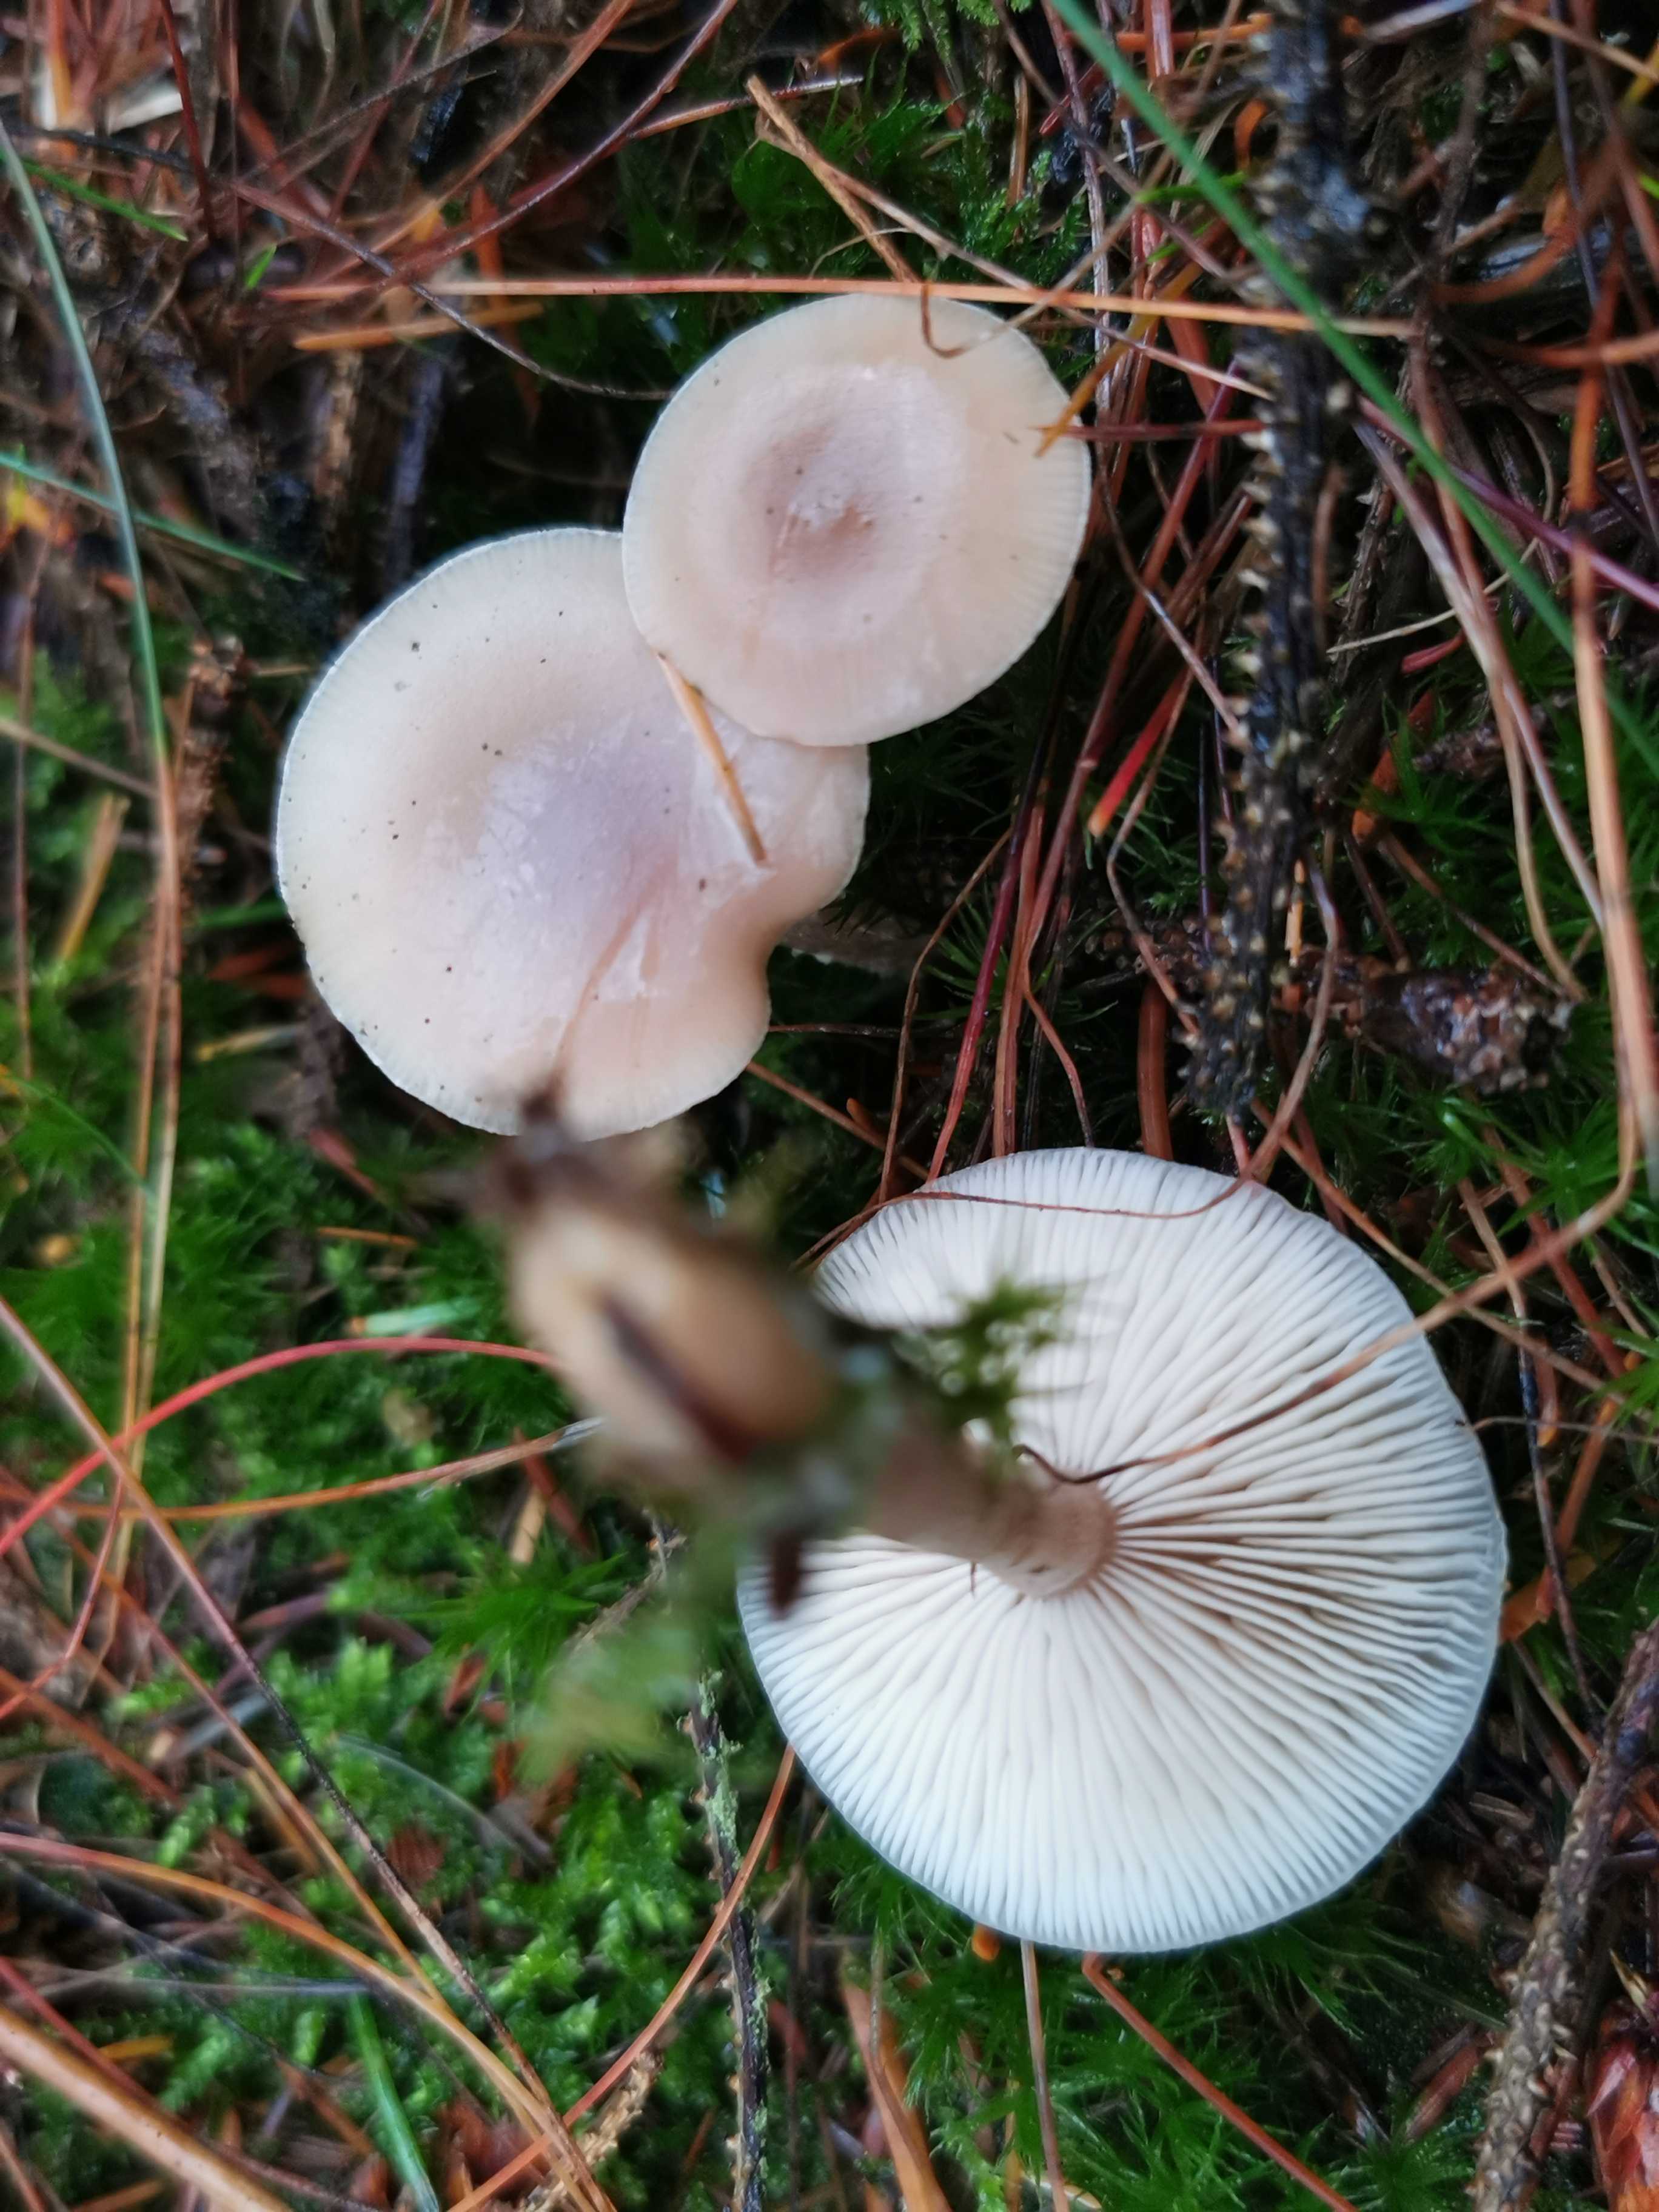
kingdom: Fungi
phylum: Basidiomycota
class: Agaricomycetes
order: Agaricales
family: Tricholomataceae
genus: Clitocybe
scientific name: Clitocybe fragrans
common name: vellugtende tragthat
